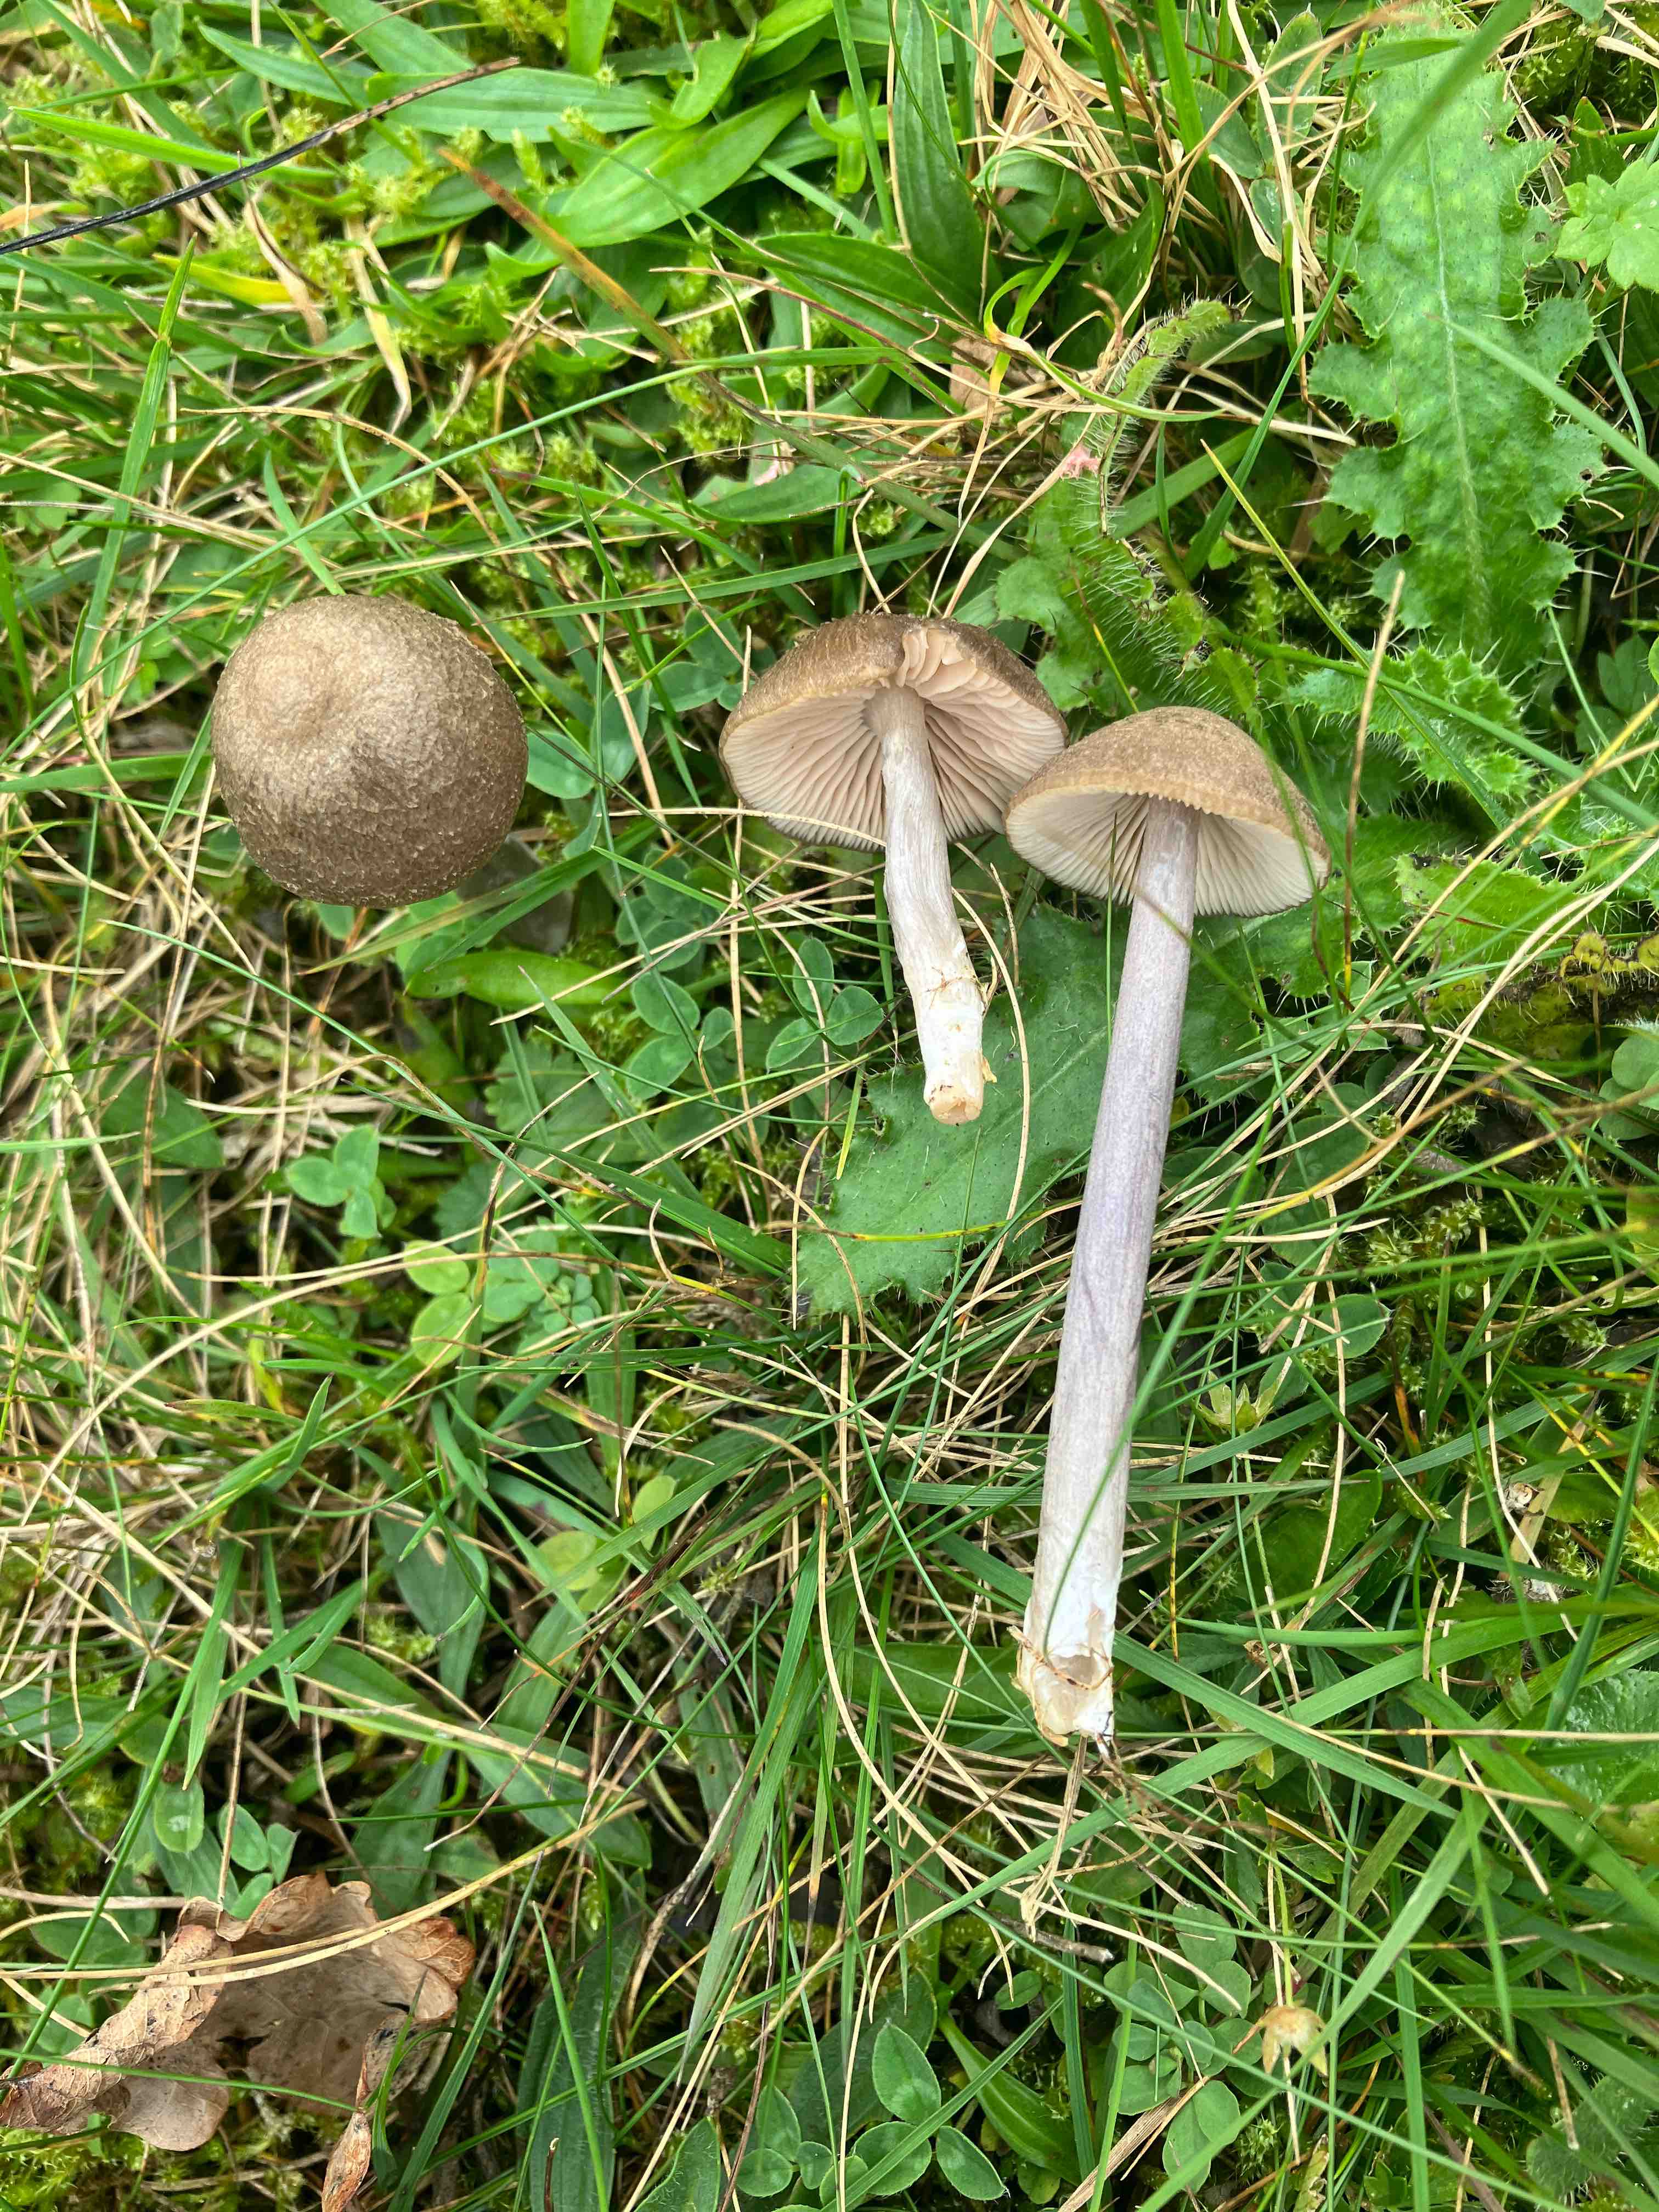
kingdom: Fungi
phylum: Basidiomycota
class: Agaricomycetes
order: Agaricales
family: Entolomataceae
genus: Entoloma
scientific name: Entoloma griseocyaneum
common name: gråblå rødblad
